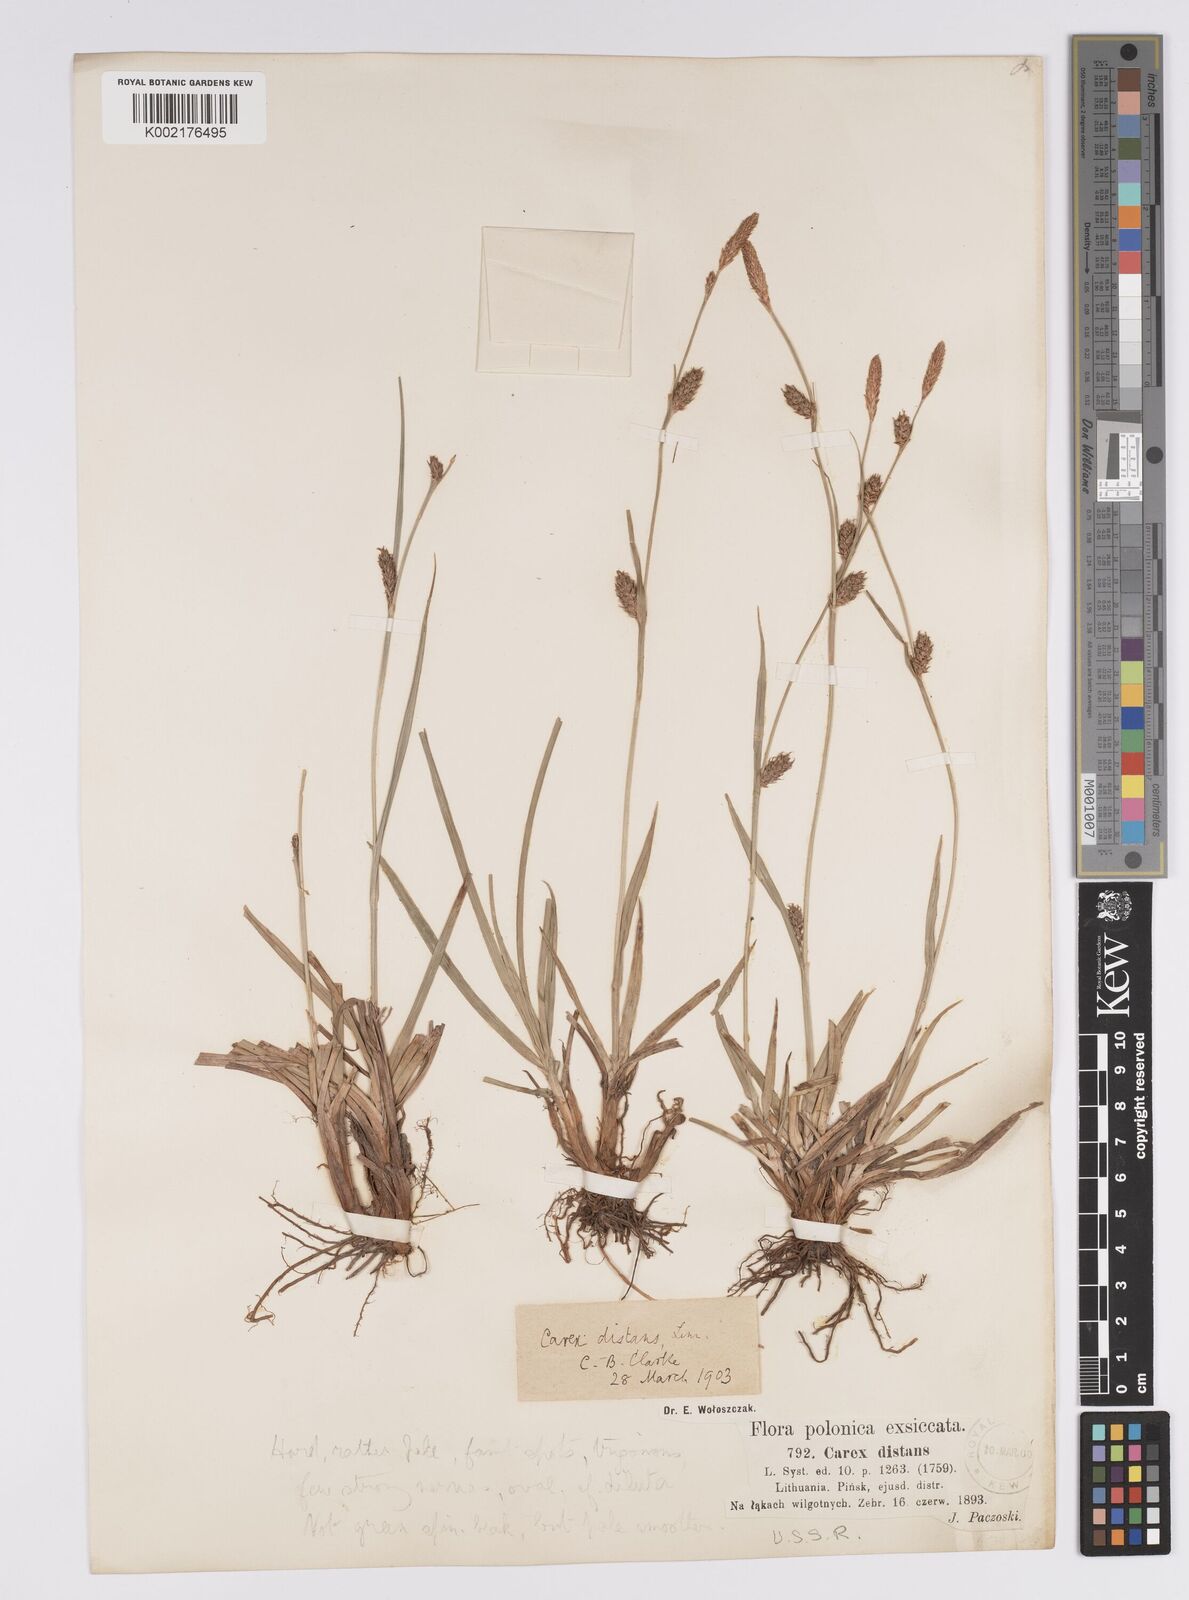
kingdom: Plantae
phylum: Tracheophyta
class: Liliopsida
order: Poales
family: Cyperaceae
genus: Carex
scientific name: Carex distans
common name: Distant sedge
